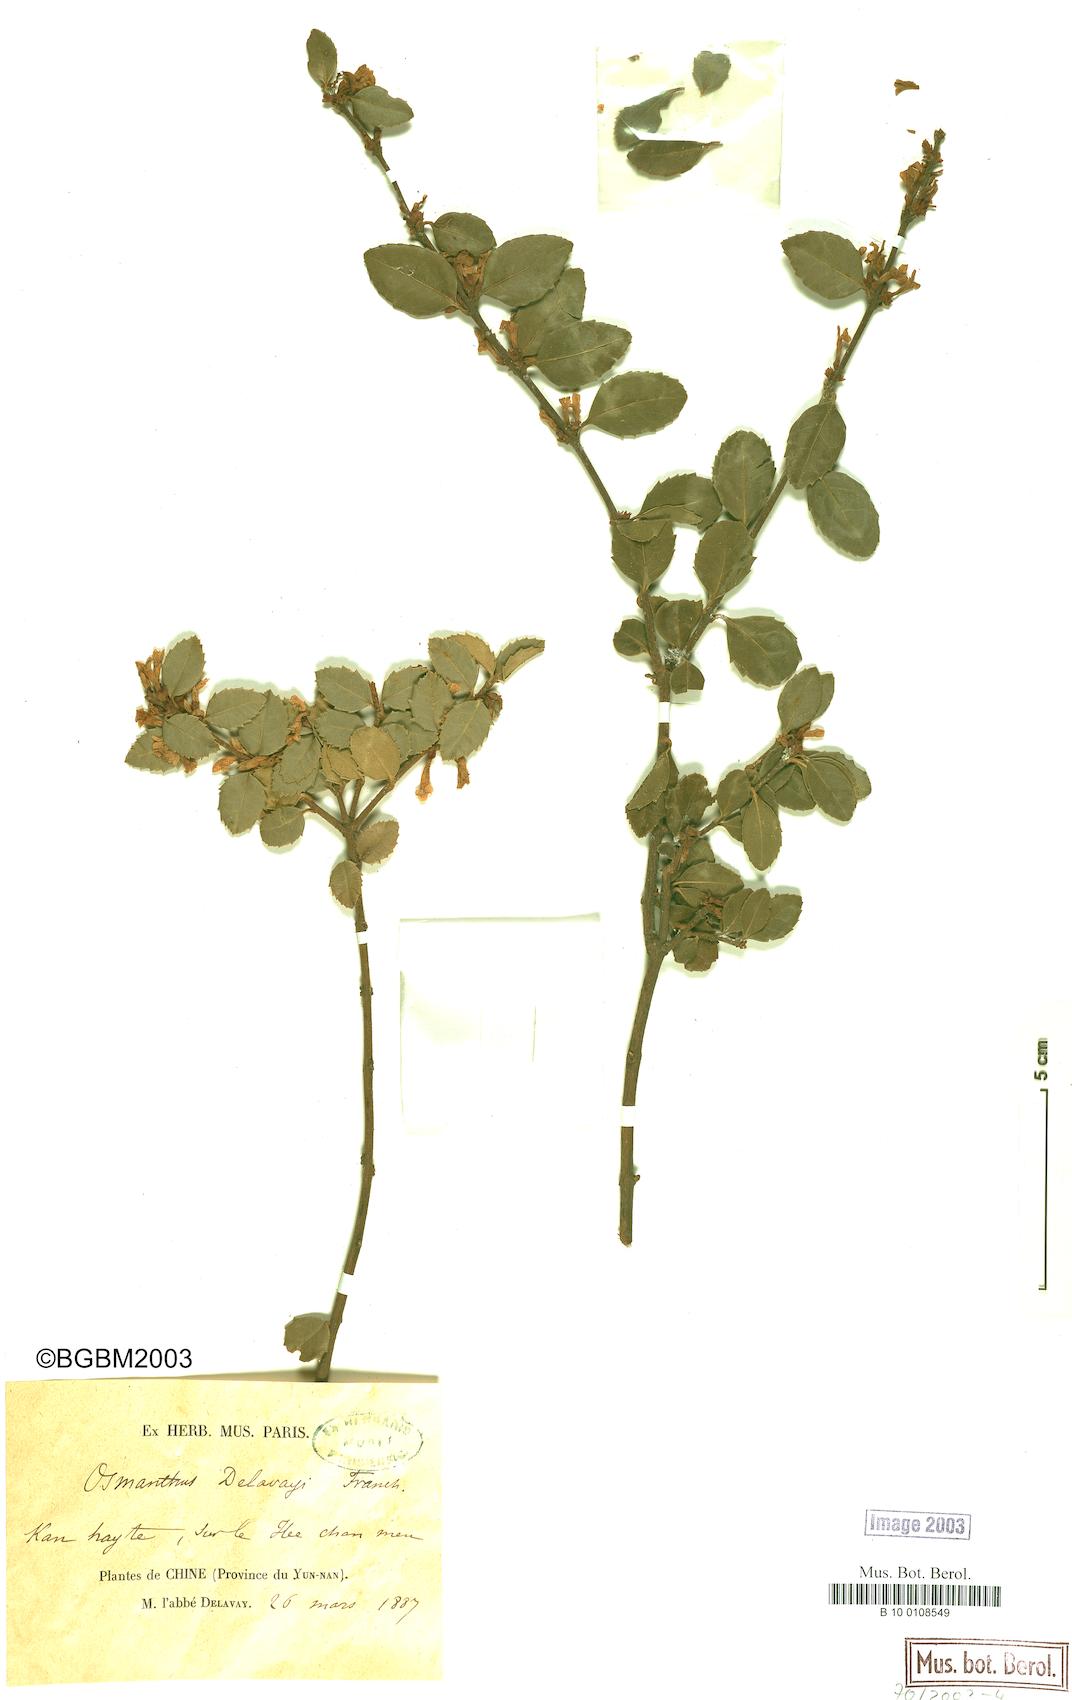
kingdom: Plantae
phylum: Tracheophyta
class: Magnoliopsida
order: Lamiales
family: Oleaceae
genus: Osmanthus
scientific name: Osmanthus delavayi
